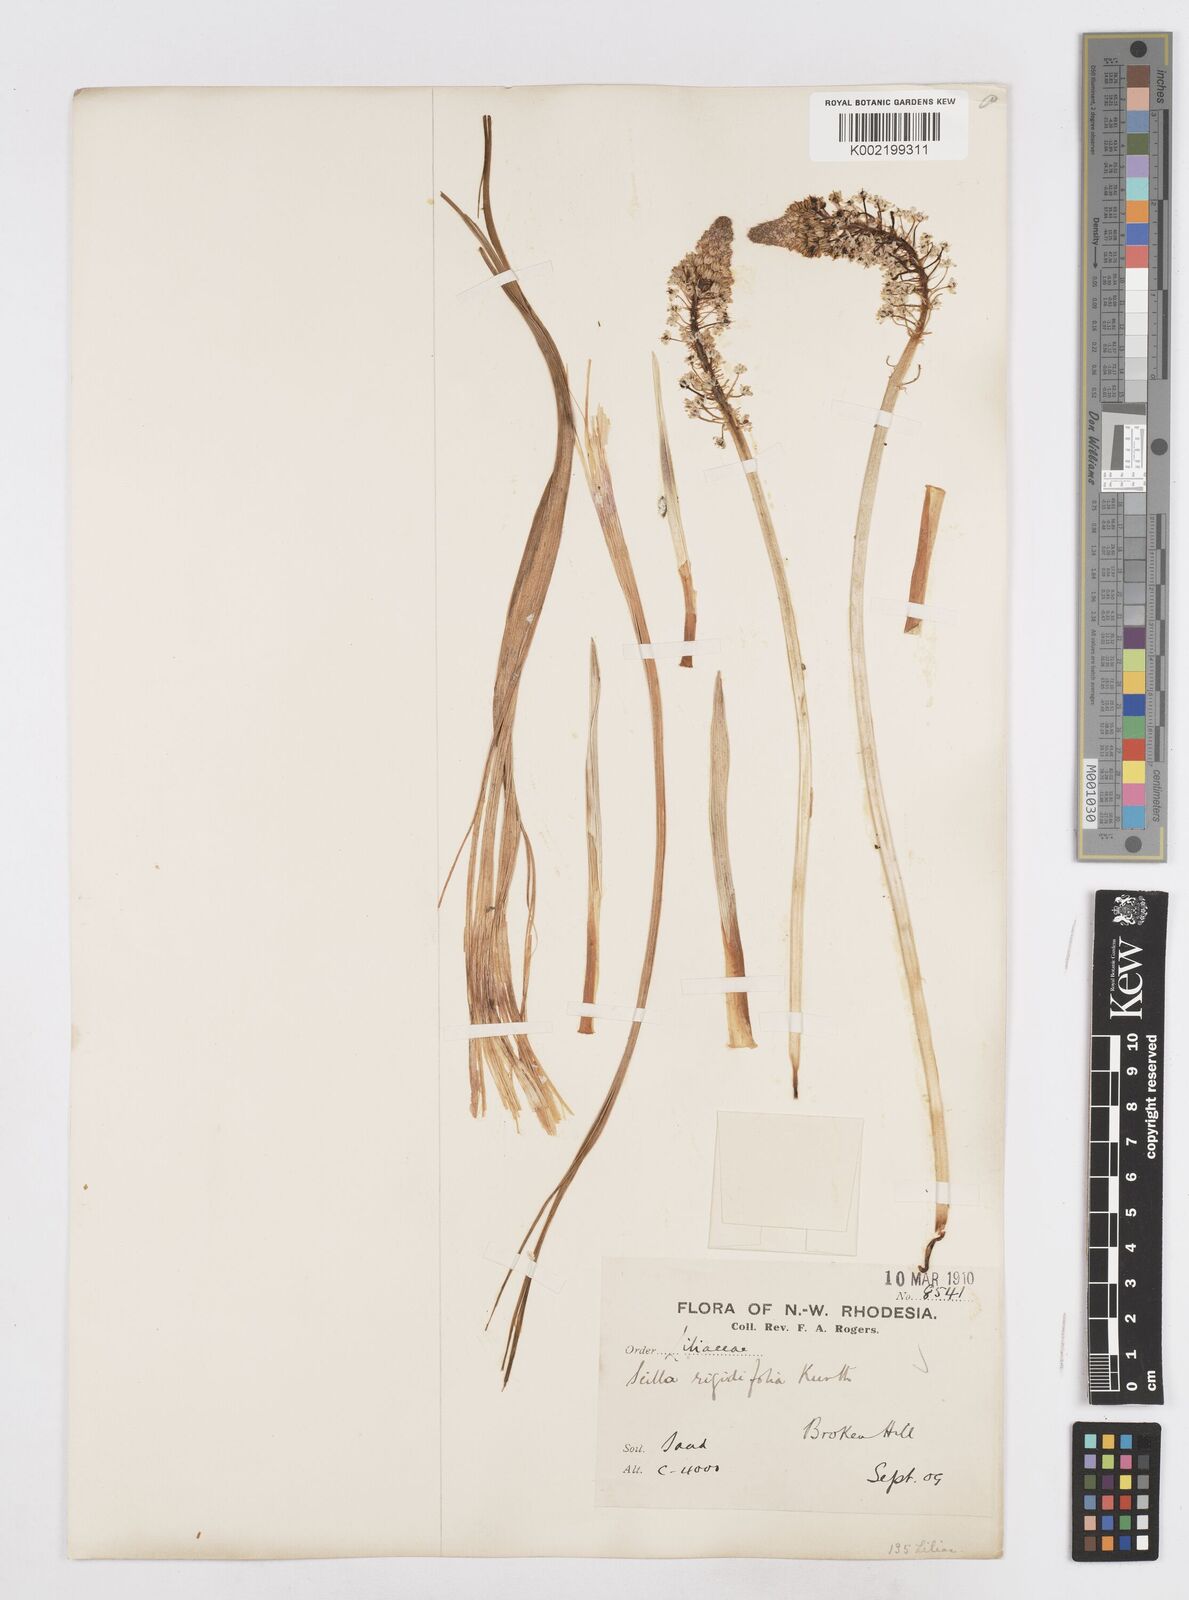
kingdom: Plantae
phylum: Tracheophyta
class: Liliopsida
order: Asparagales
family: Asparagaceae
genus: Schizocarphus
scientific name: Schizocarphus nervosus
